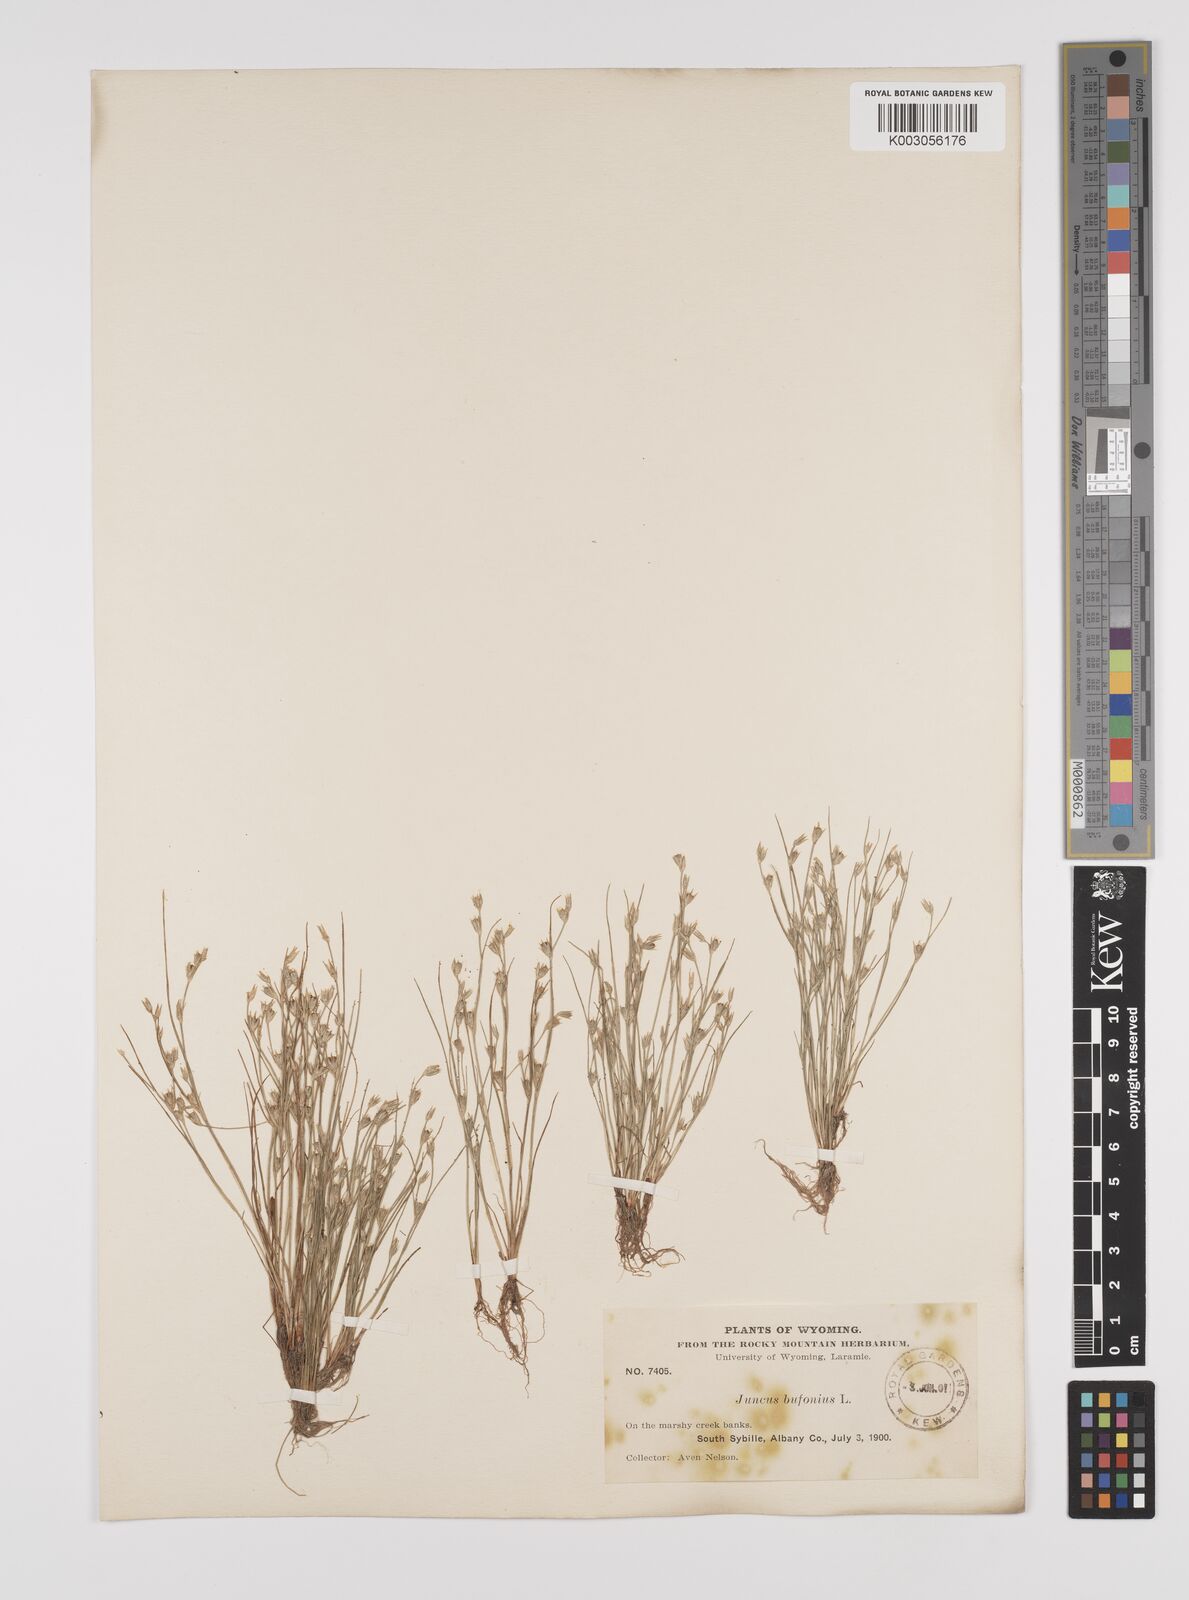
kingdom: Plantae
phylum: Tracheophyta
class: Liliopsida
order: Poales
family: Juncaceae
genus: Juncus
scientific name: Juncus bufonius
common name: Toad rush
